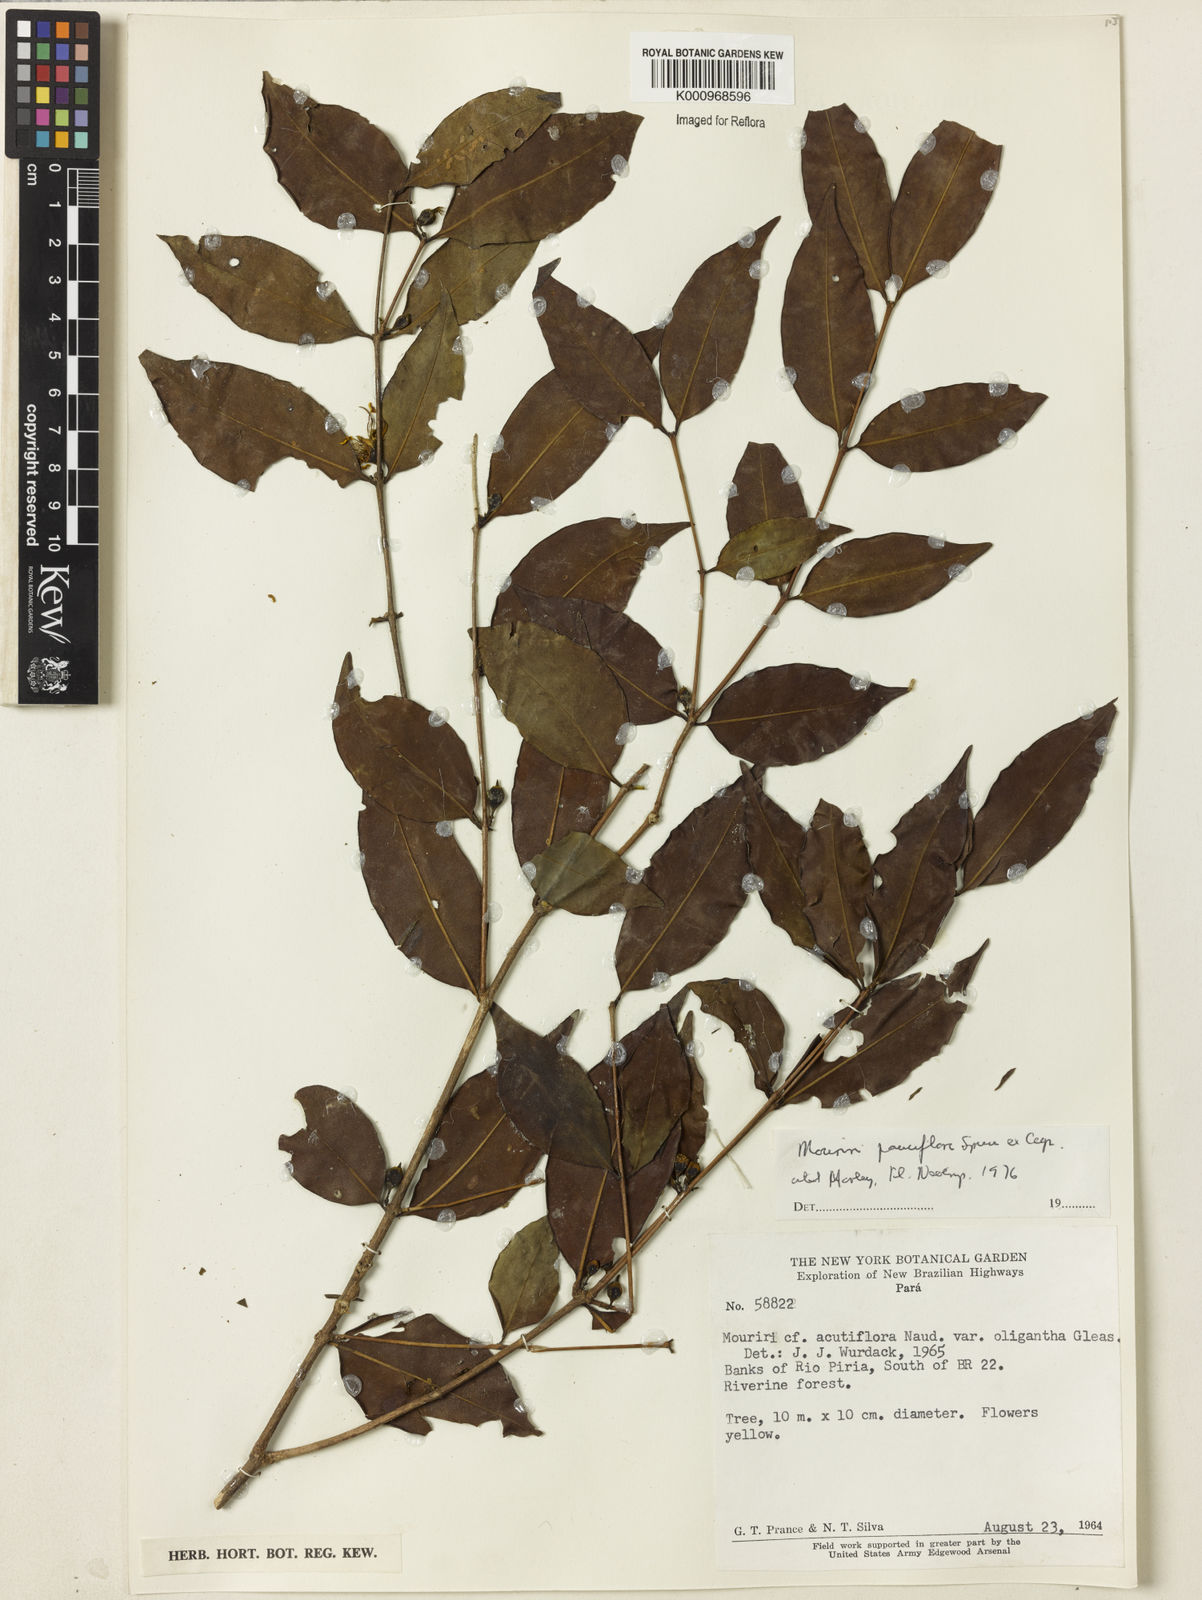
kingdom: Plantae
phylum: Tracheophyta
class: Magnoliopsida
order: Myrtales
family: Melastomataceae
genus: Mouriri
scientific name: Mouriri acutiflora
